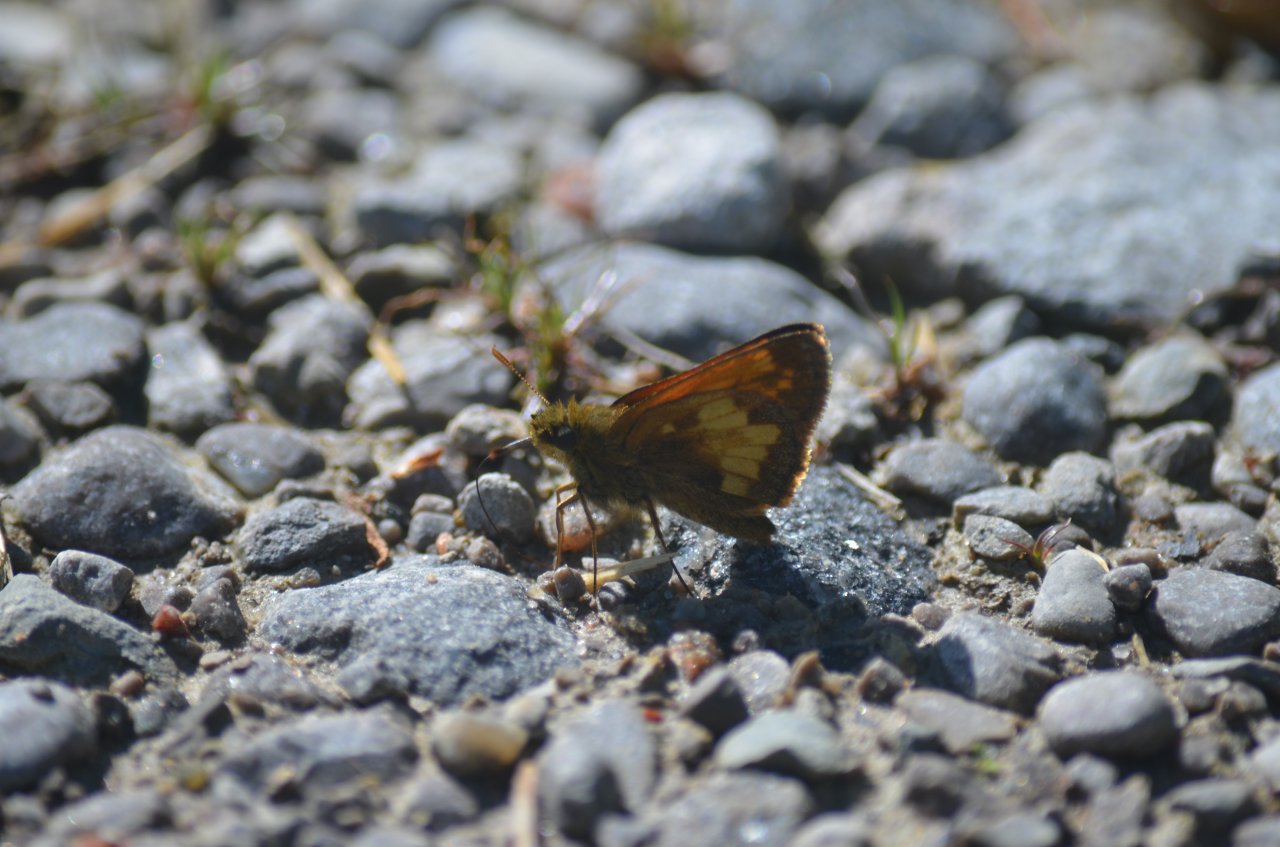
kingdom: Animalia
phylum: Arthropoda
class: Insecta
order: Lepidoptera
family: Hesperiidae
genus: Lon
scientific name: Lon hobomok
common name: Hobomok Skipper
